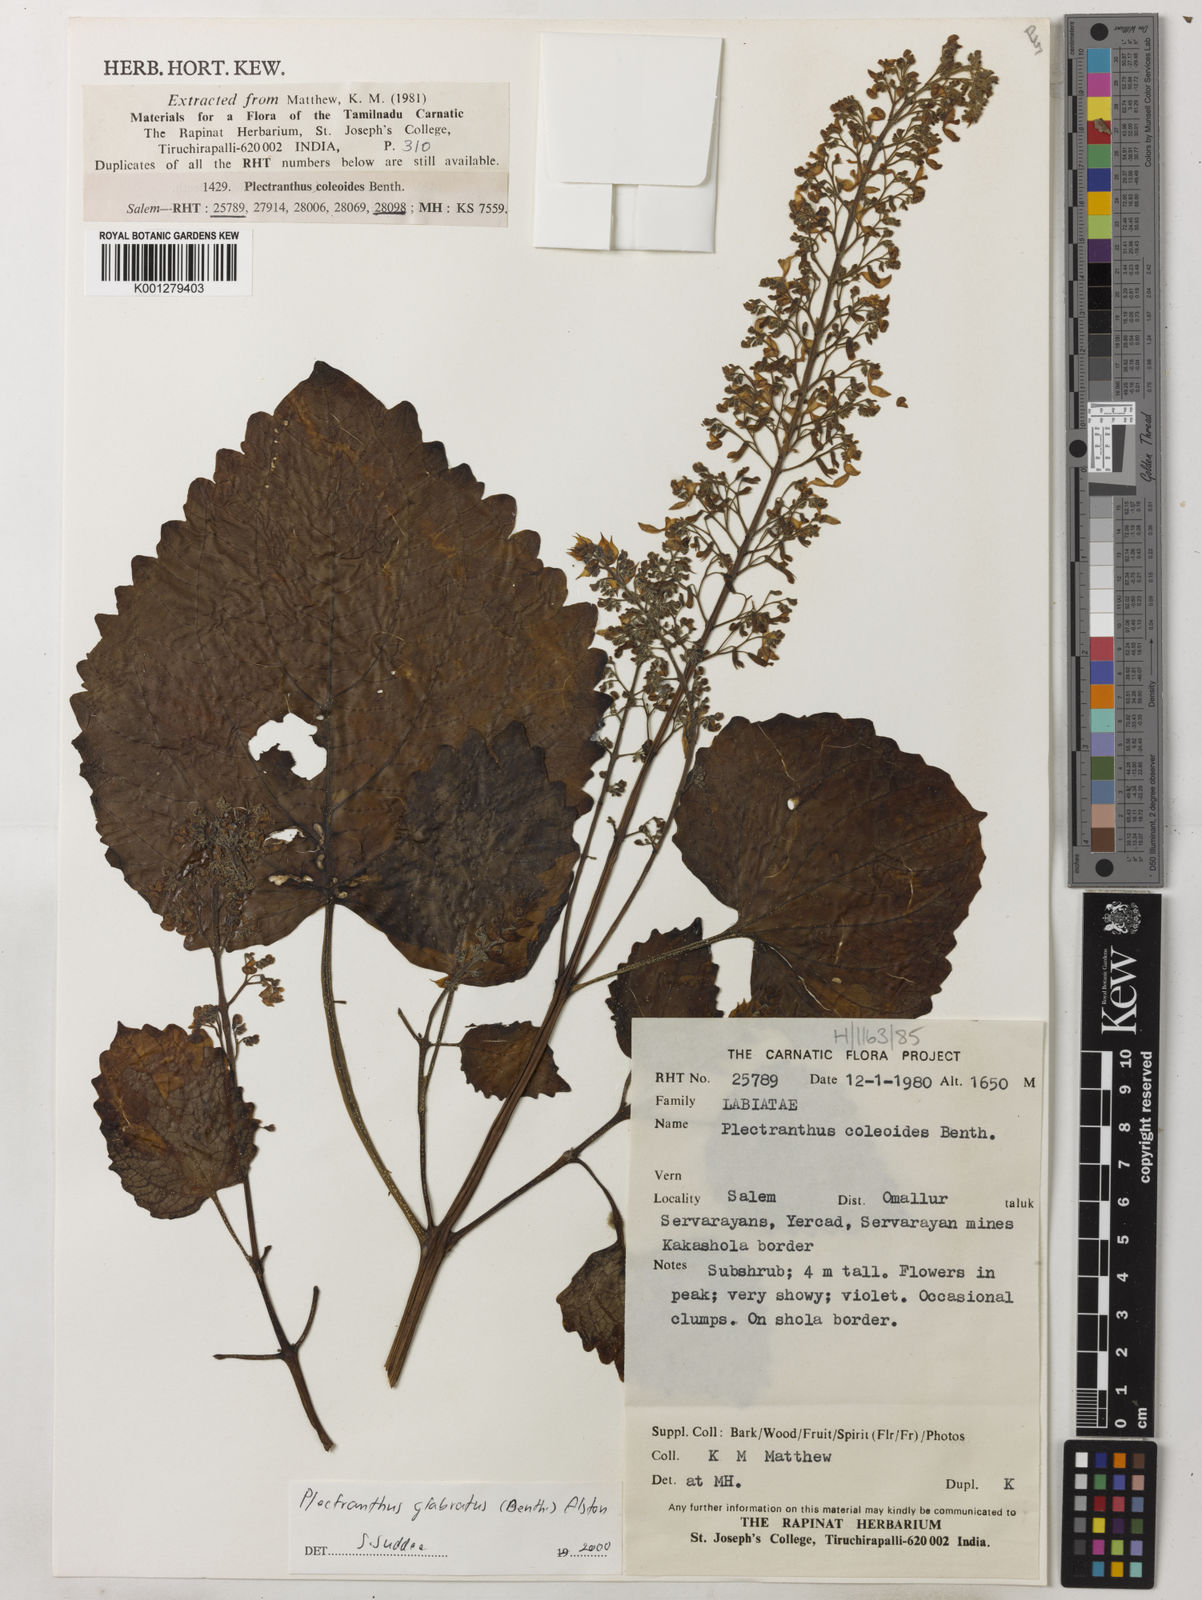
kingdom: Plantae
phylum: Tracheophyta
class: Magnoliopsida
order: Lamiales
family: Lamiaceae
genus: Coleus
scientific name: Coleus paniculatus
